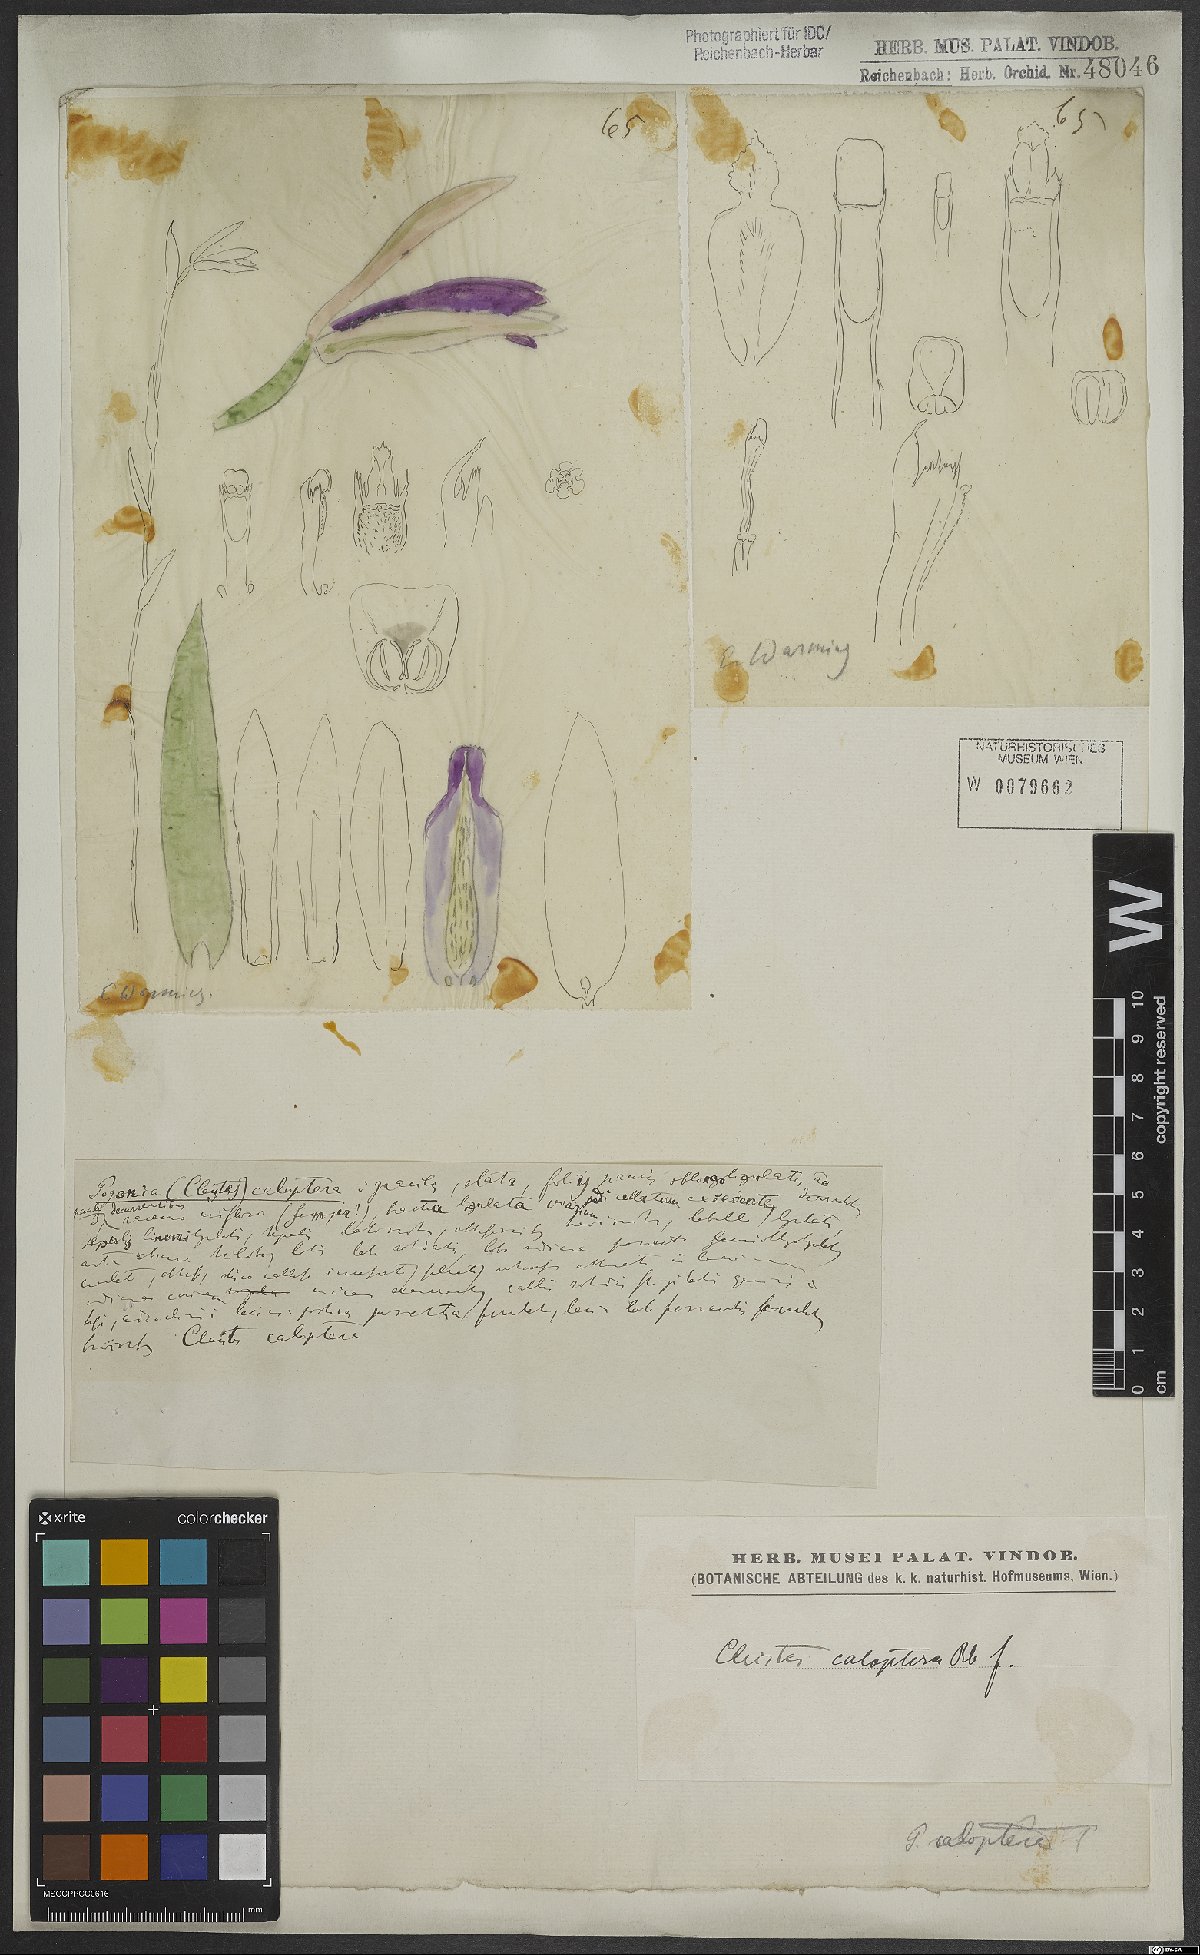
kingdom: Plantae
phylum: Tracheophyta
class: Liliopsida
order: Asparagales
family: Orchidaceae
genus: Cleistes
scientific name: Cleistes speciosa
